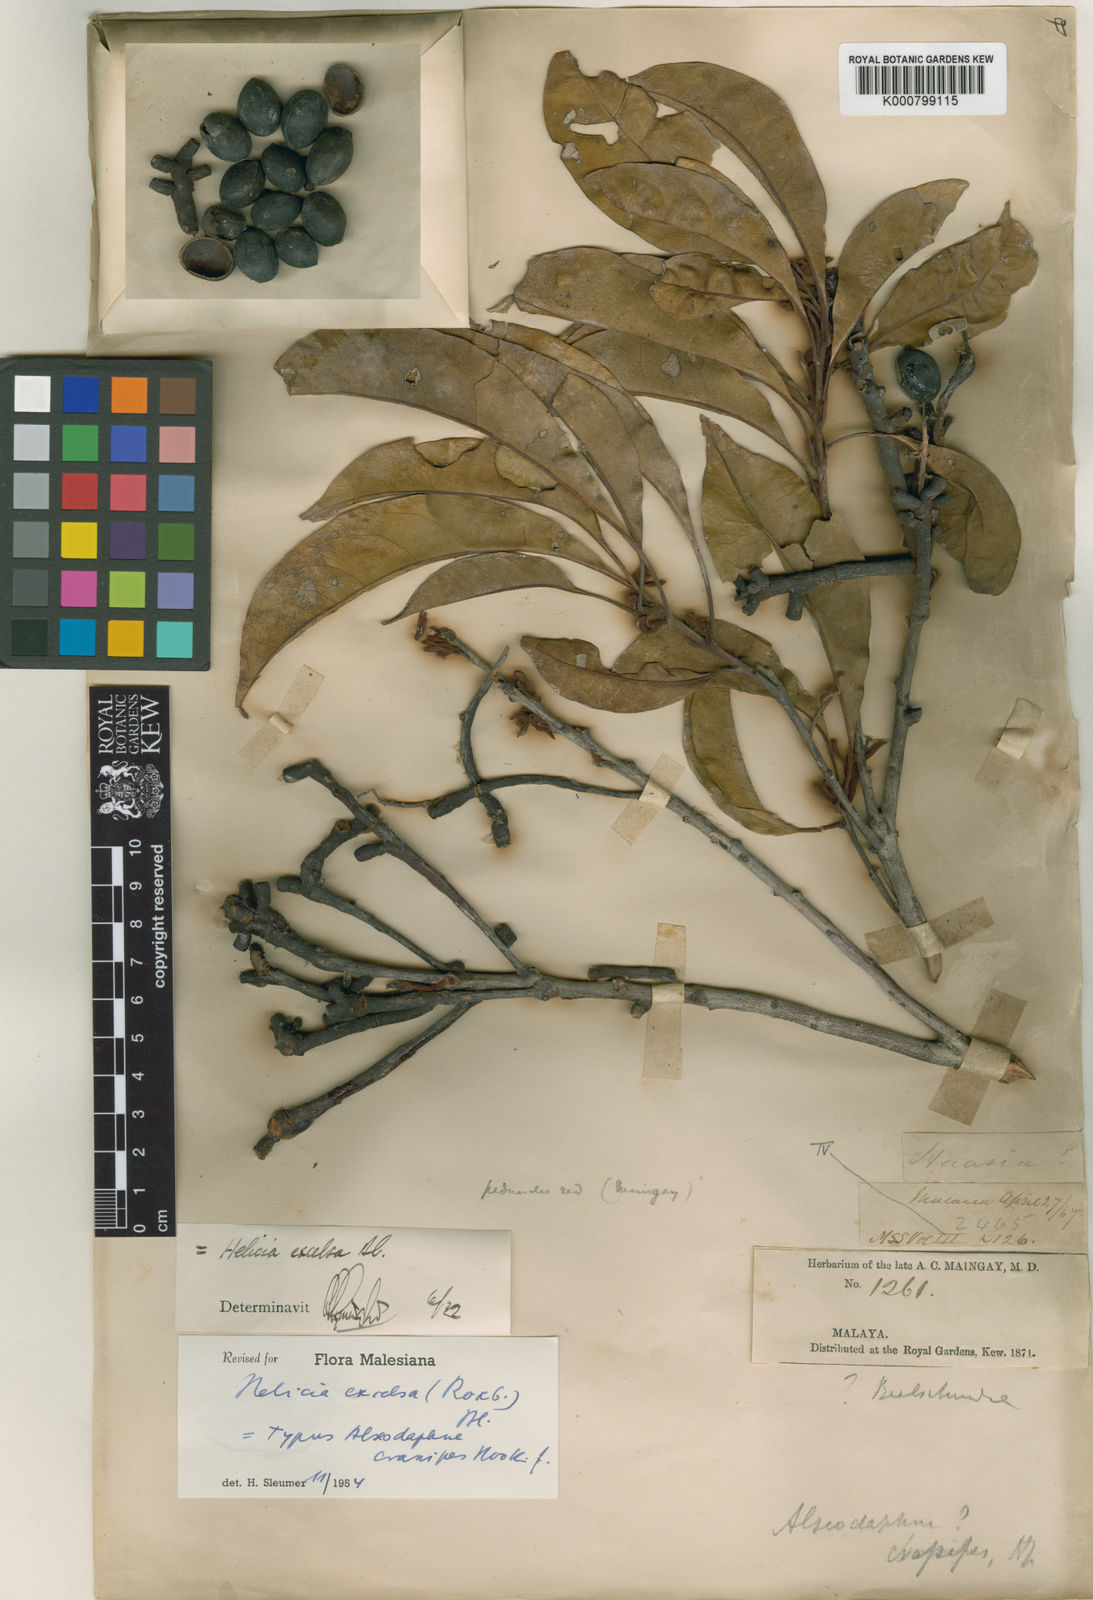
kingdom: Plantae
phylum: Tracheophyta
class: Magnoliopsida
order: Proteales
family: Proteaceae
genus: Helicia
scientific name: Helicia excelsa
